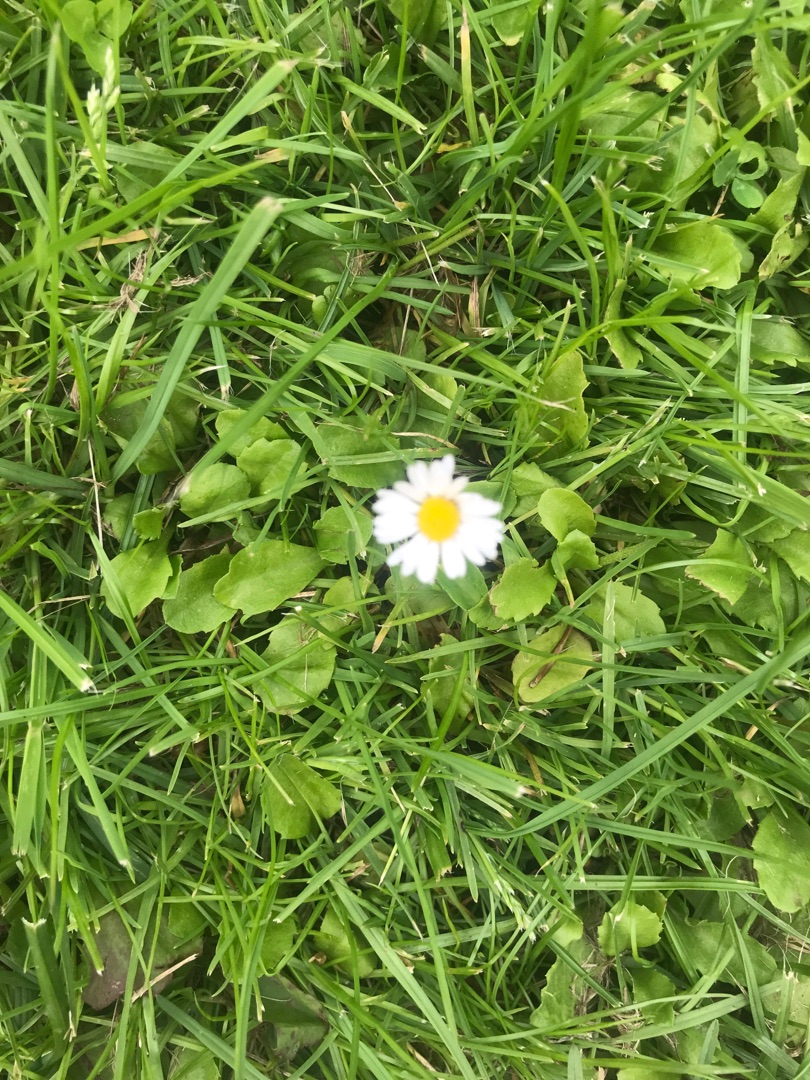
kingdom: Plantae
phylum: Tracheophyta
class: Magnoliopsida
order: Asterales
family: Asteraceae
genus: Bellis
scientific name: Bellis perennis
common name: Tusindfryd
